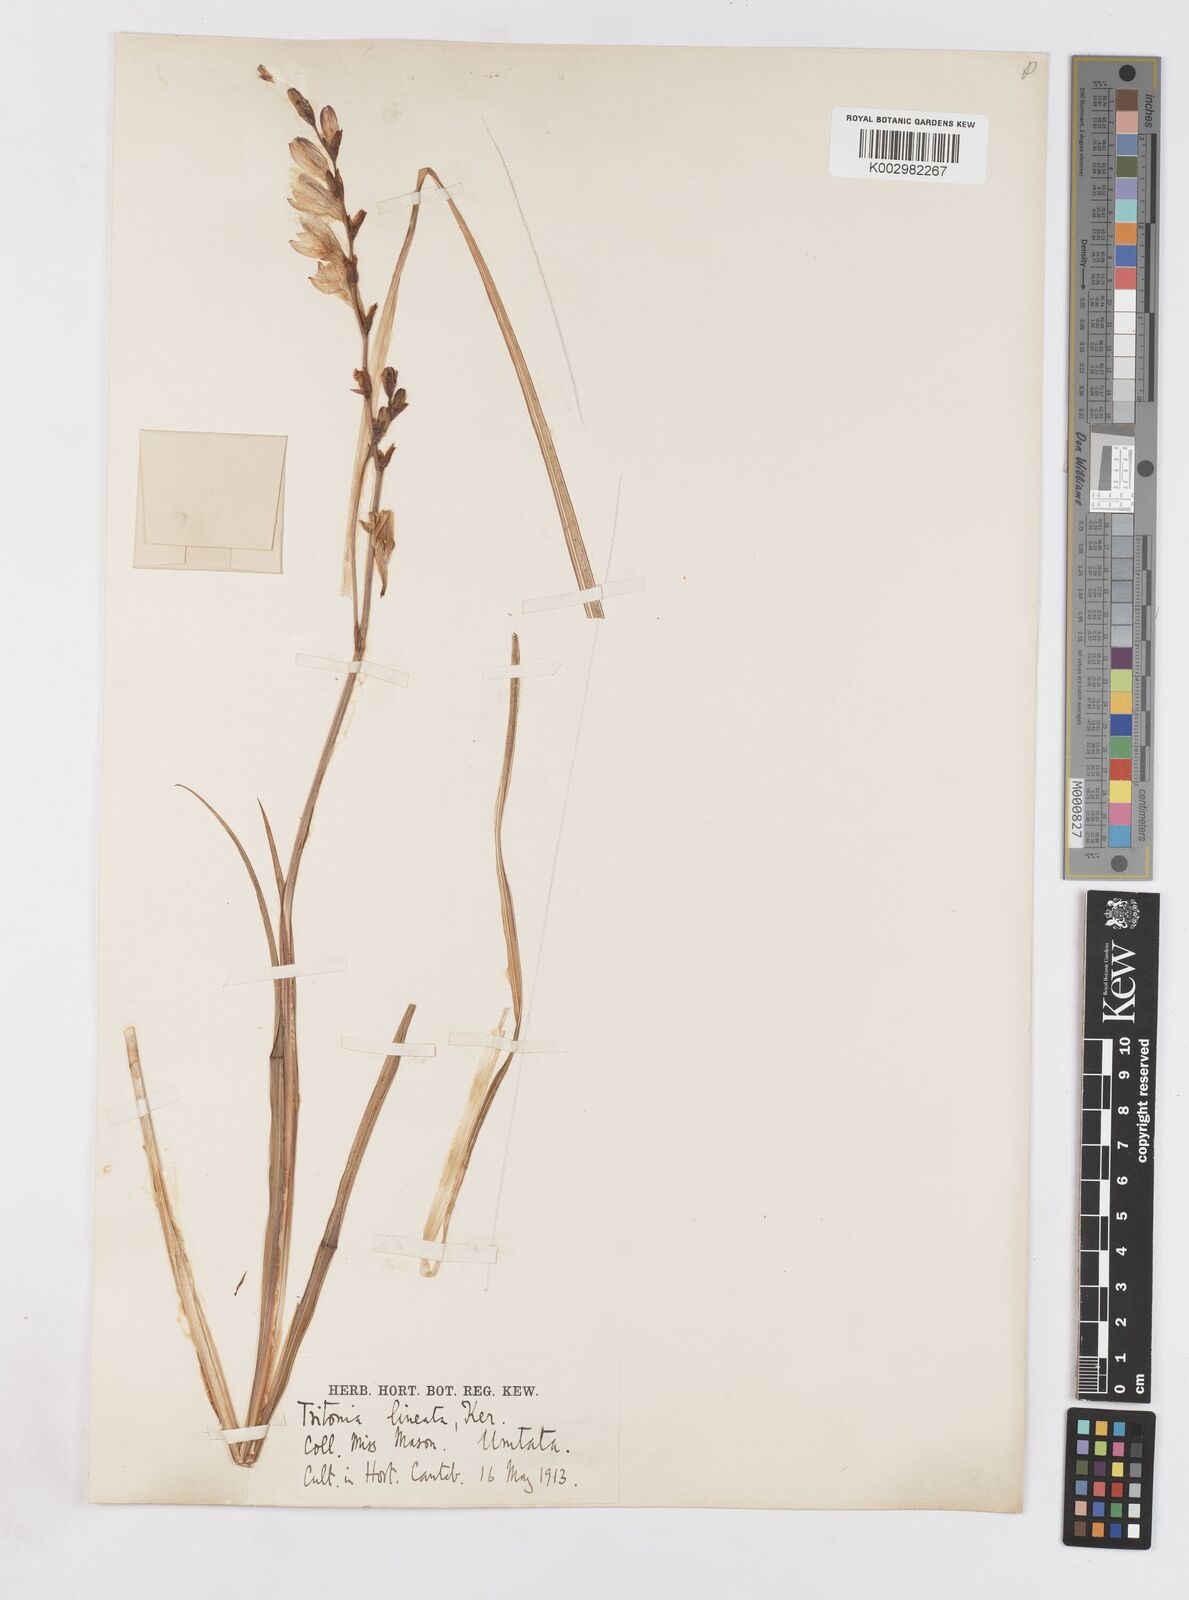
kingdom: Plantae
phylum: Tracheophyta
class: Liliopsida
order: Asparagales
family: Iridaceae
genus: Tritonia
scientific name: Tritonia gladiolaris
